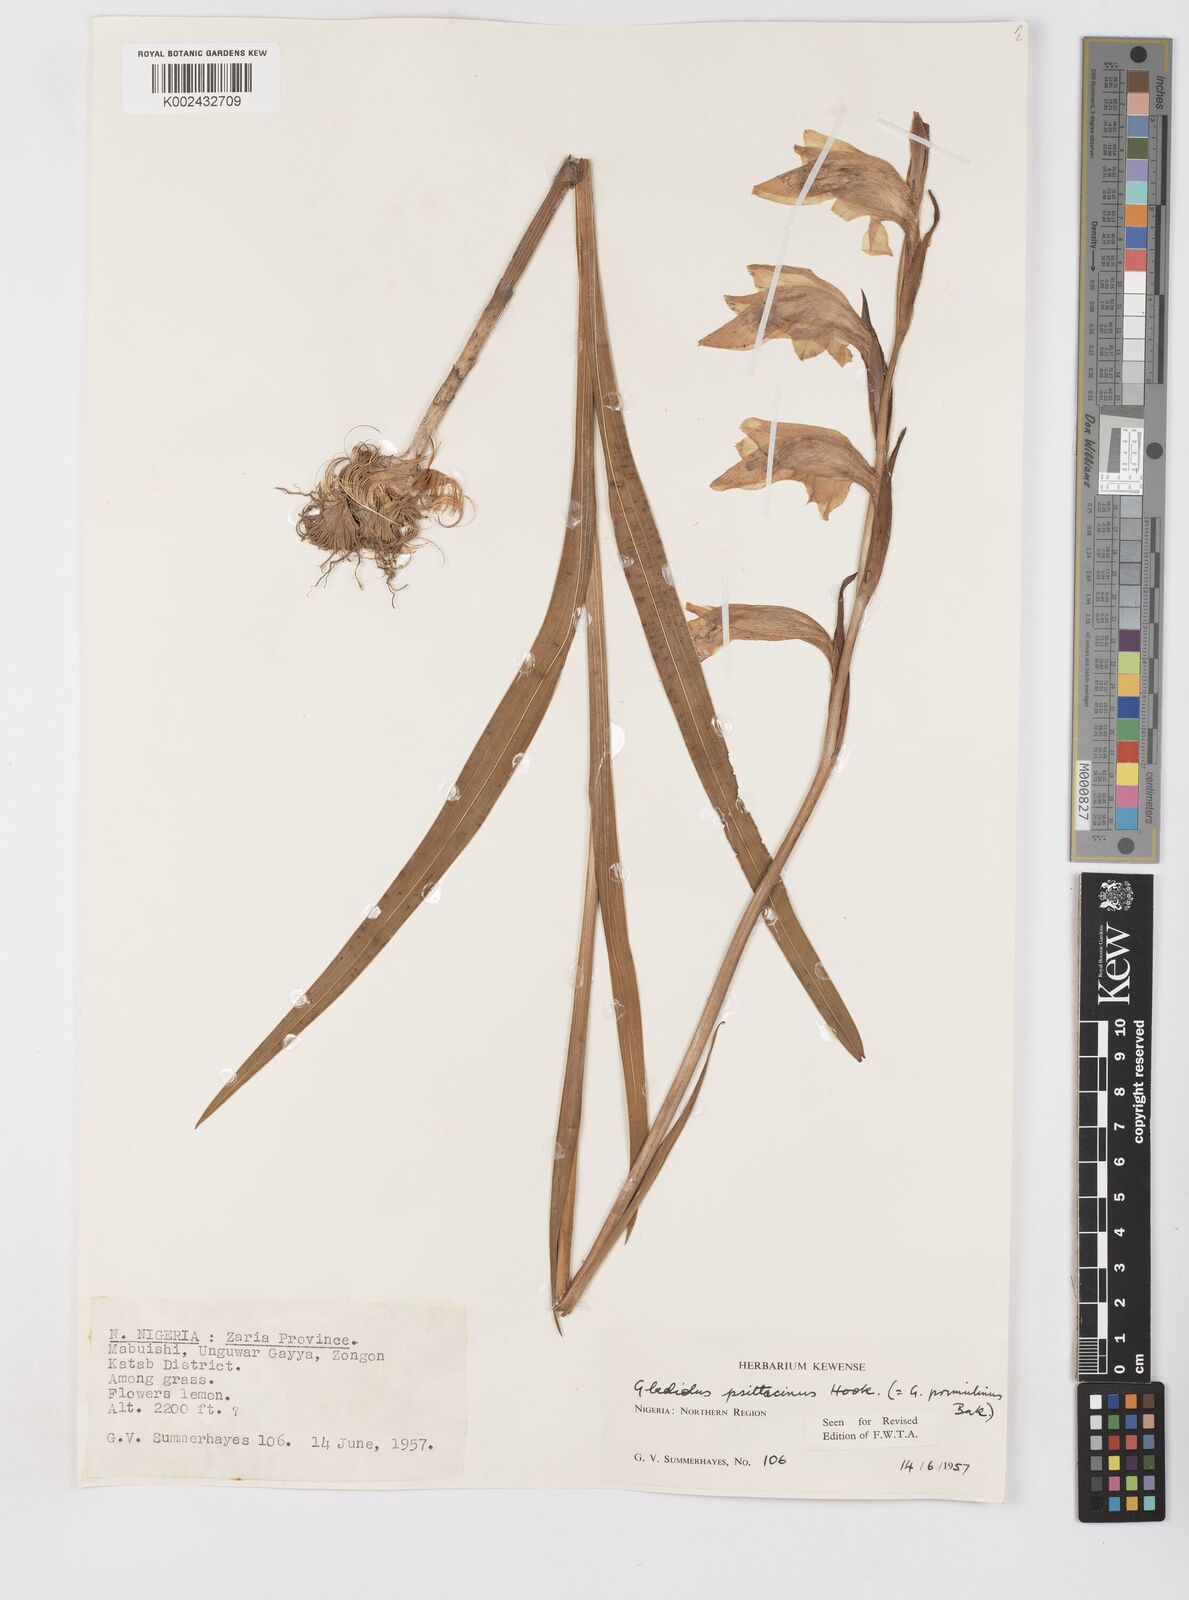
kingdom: Plantae
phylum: Tracheophyta
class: Liliopsida
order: Asparagales
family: Iridaceae
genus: Gladiolus
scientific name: Gladiolus dalenii
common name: Cornflag
